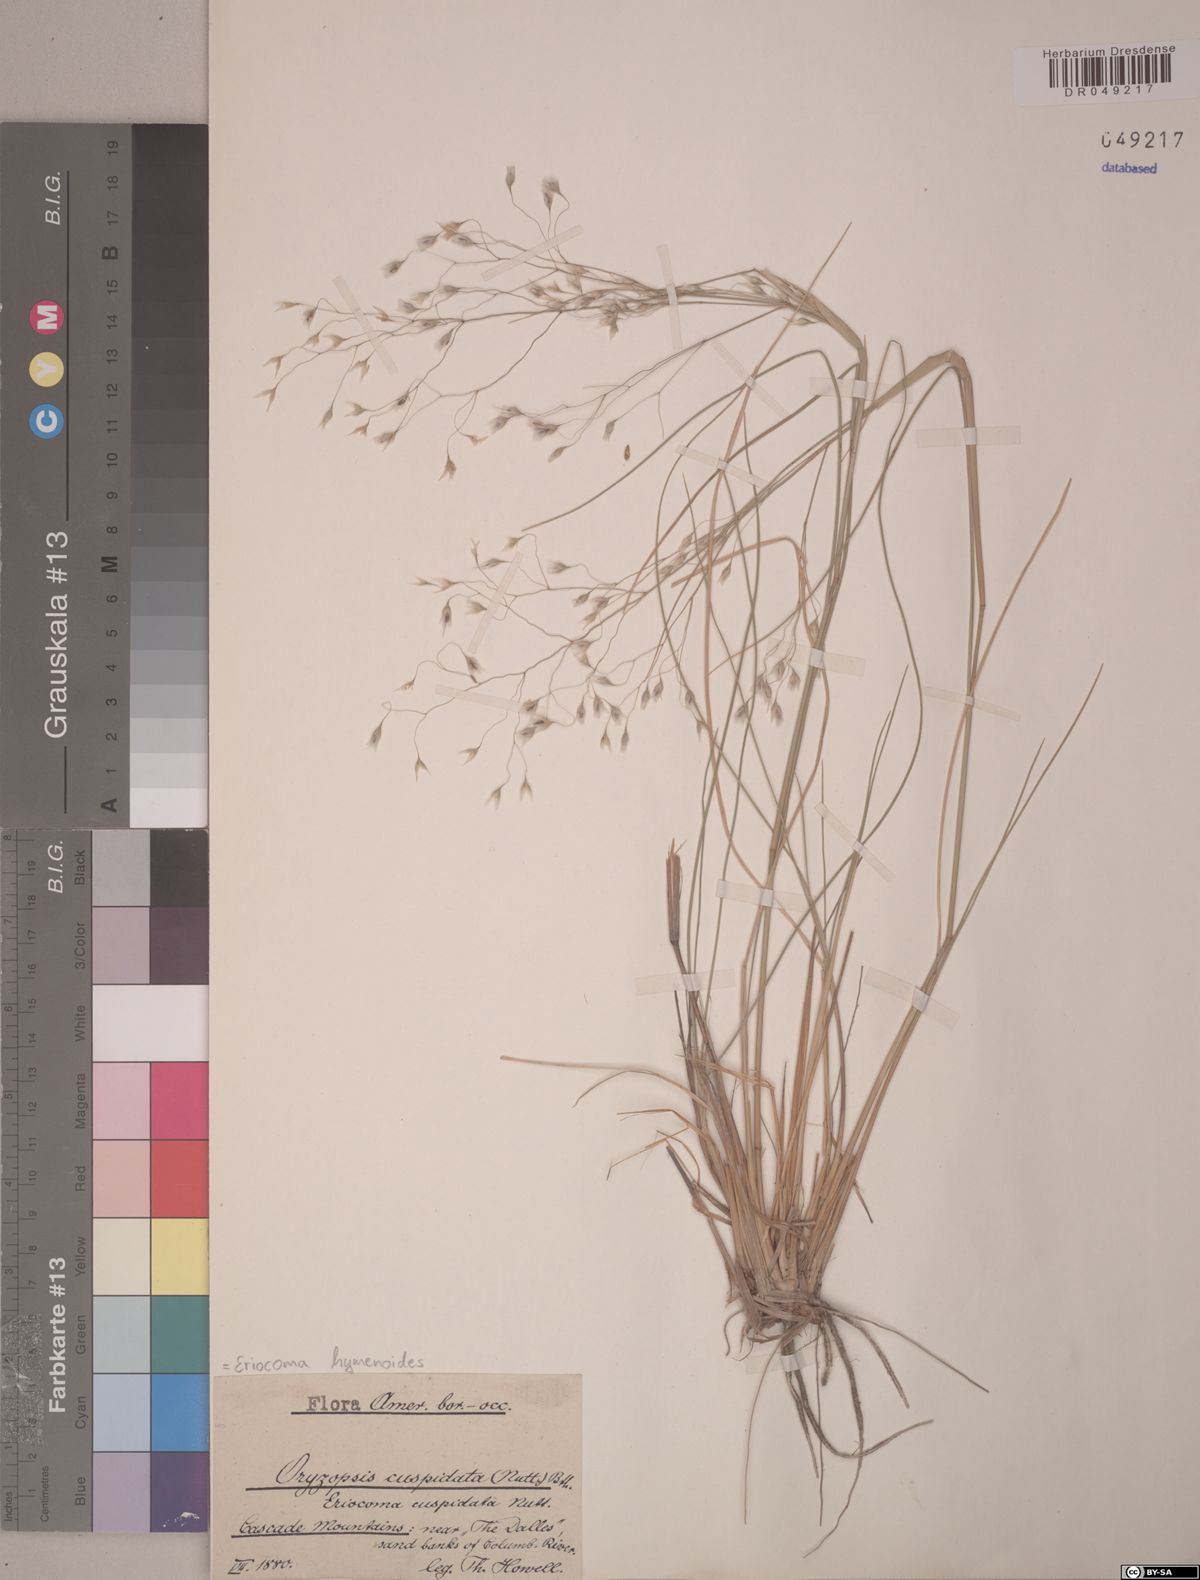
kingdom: Plantae
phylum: Tracheophyta
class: Liliopsida
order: Poales
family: Poaceae
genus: Eriocoma
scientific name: Eriocoma hymenoides
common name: Indian mountain ricegrass
